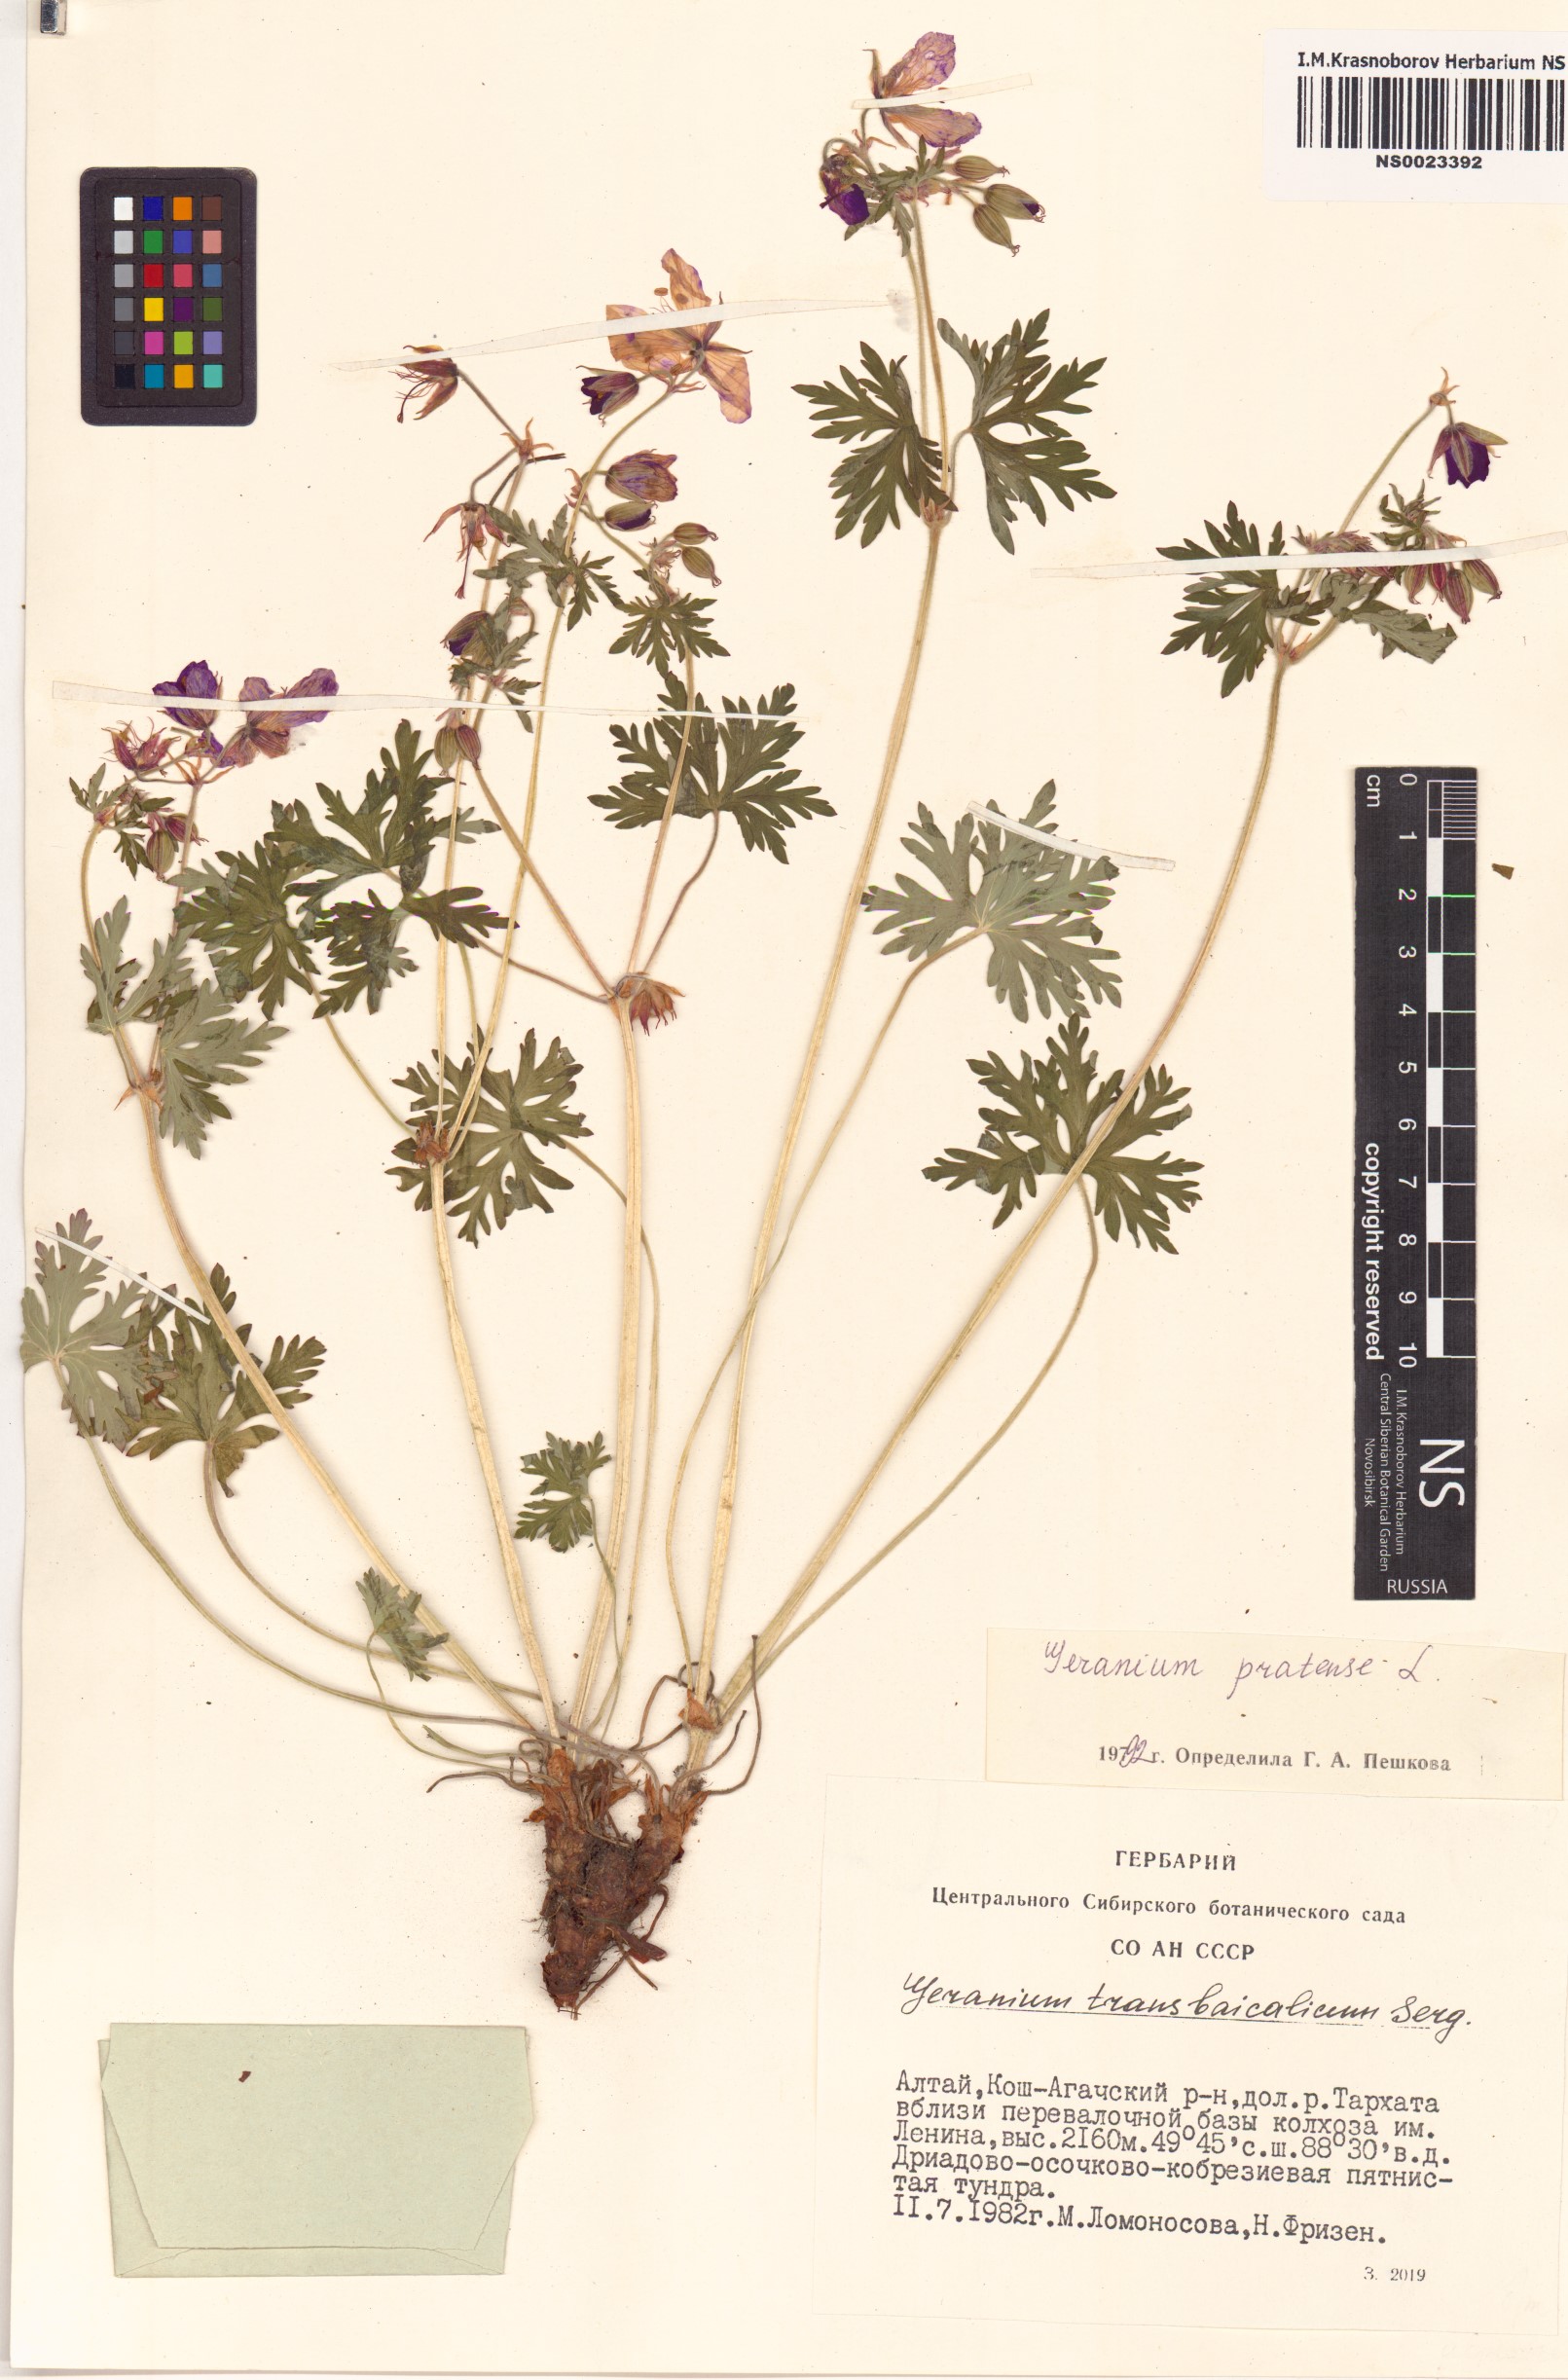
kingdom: Plantae
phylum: Tracheophyta
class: Magnoliopsida
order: Geraniales
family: Geraniaceae
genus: Geranium
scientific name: Geranium pratense
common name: Meadow crane's-bill
